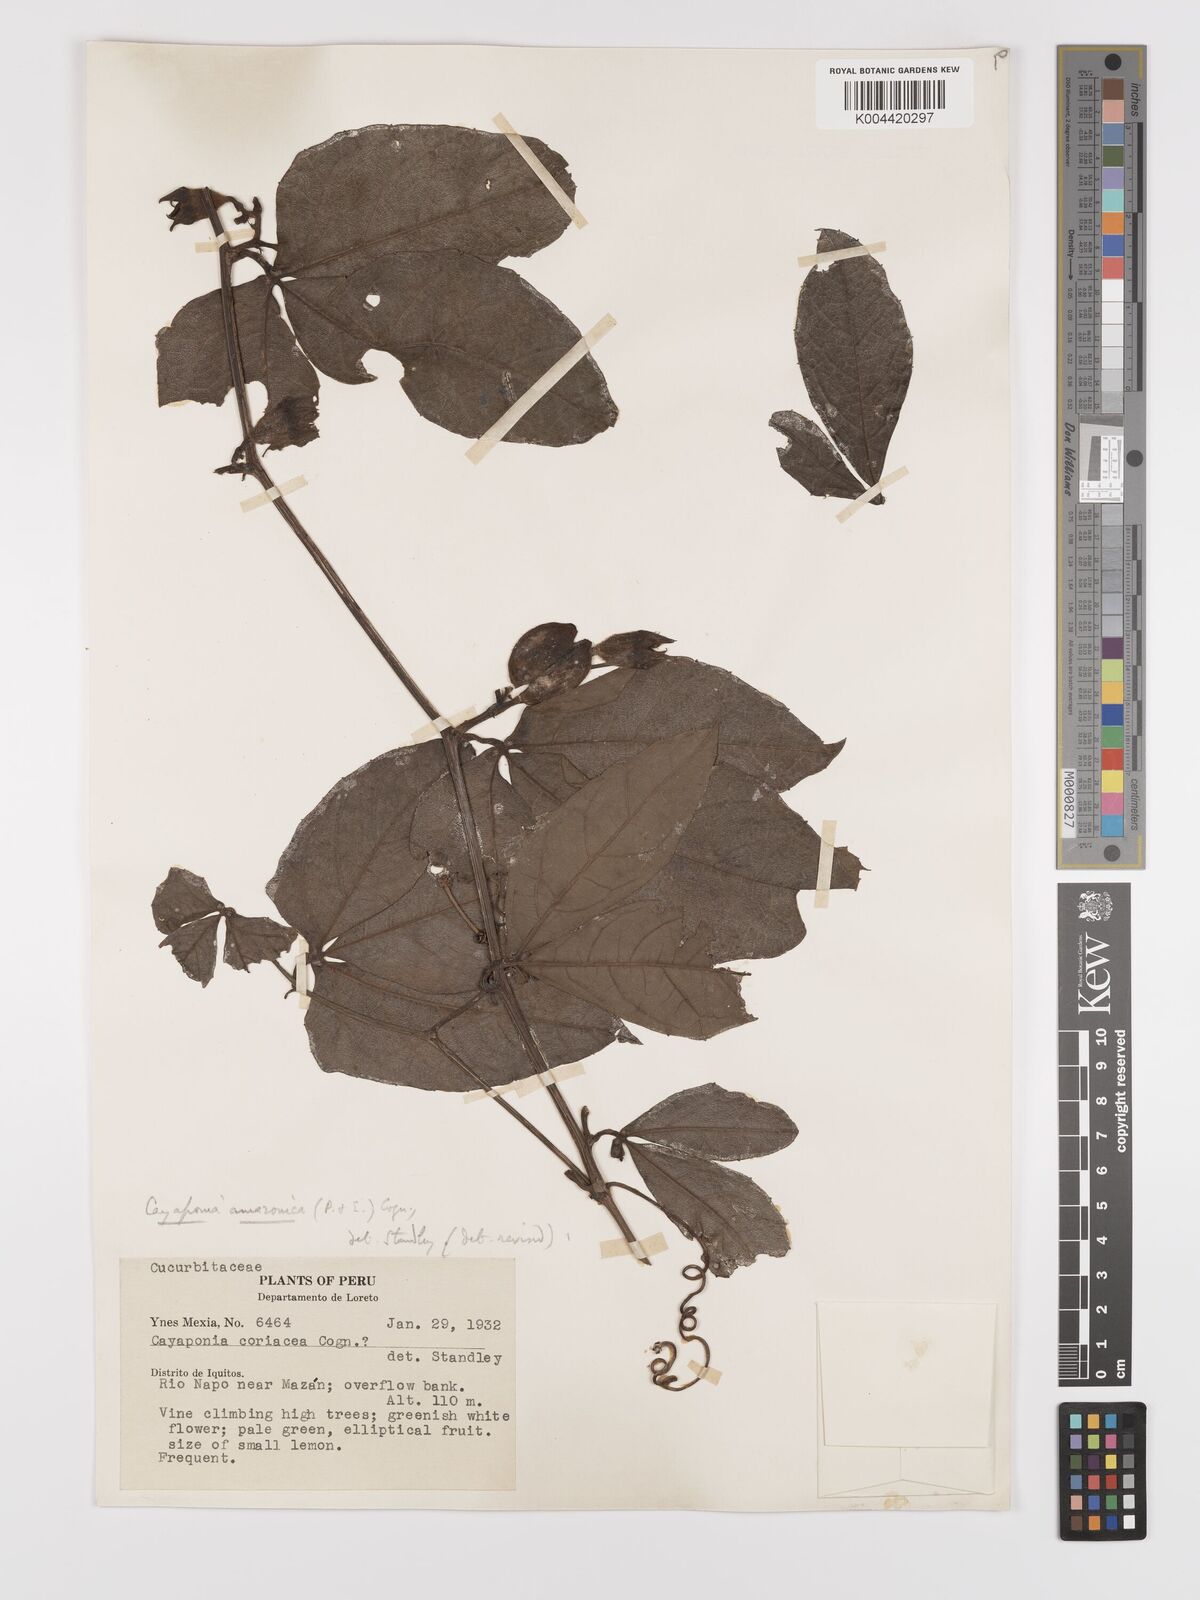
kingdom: Plantae
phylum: Tracheophyta
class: Magnoliopsida
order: Cucurbitales
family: Cucurbitaceae
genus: Cayaponia
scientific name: Cayaponia amazonica
